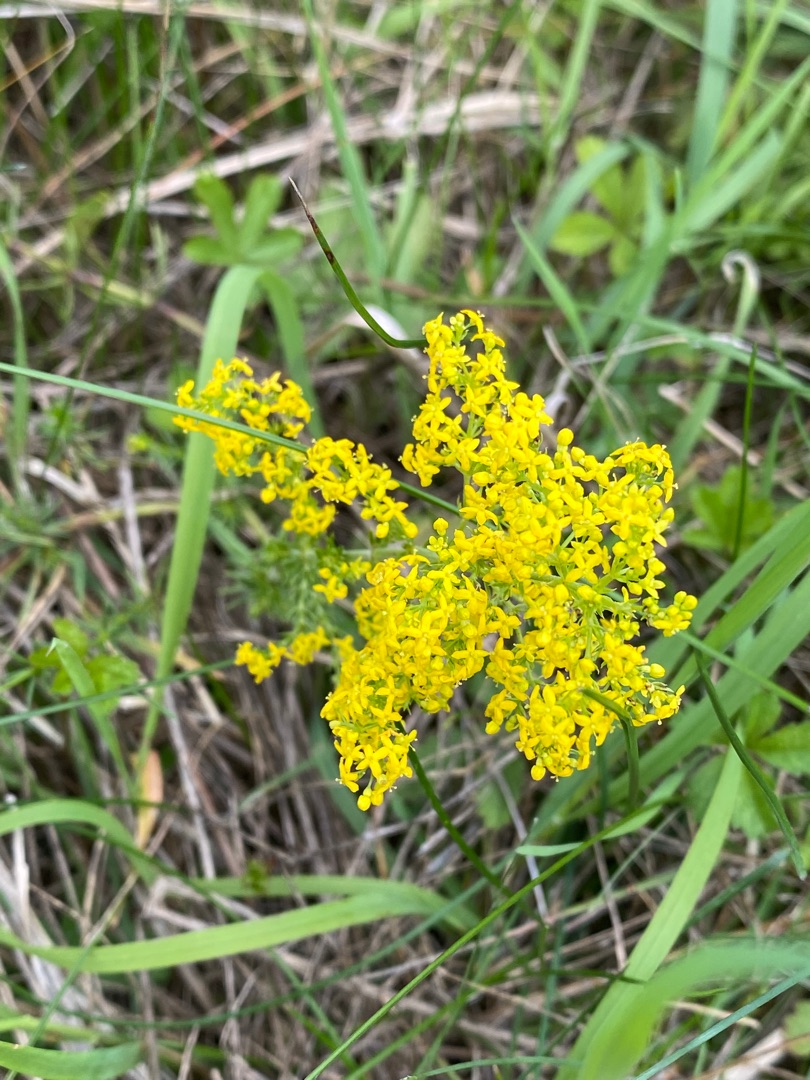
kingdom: Plantae
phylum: Tracheophyta
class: Magnoliopsida
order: Gentianales
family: Rubiaceae
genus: Galium
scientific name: Galium verum
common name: Gul snerre
